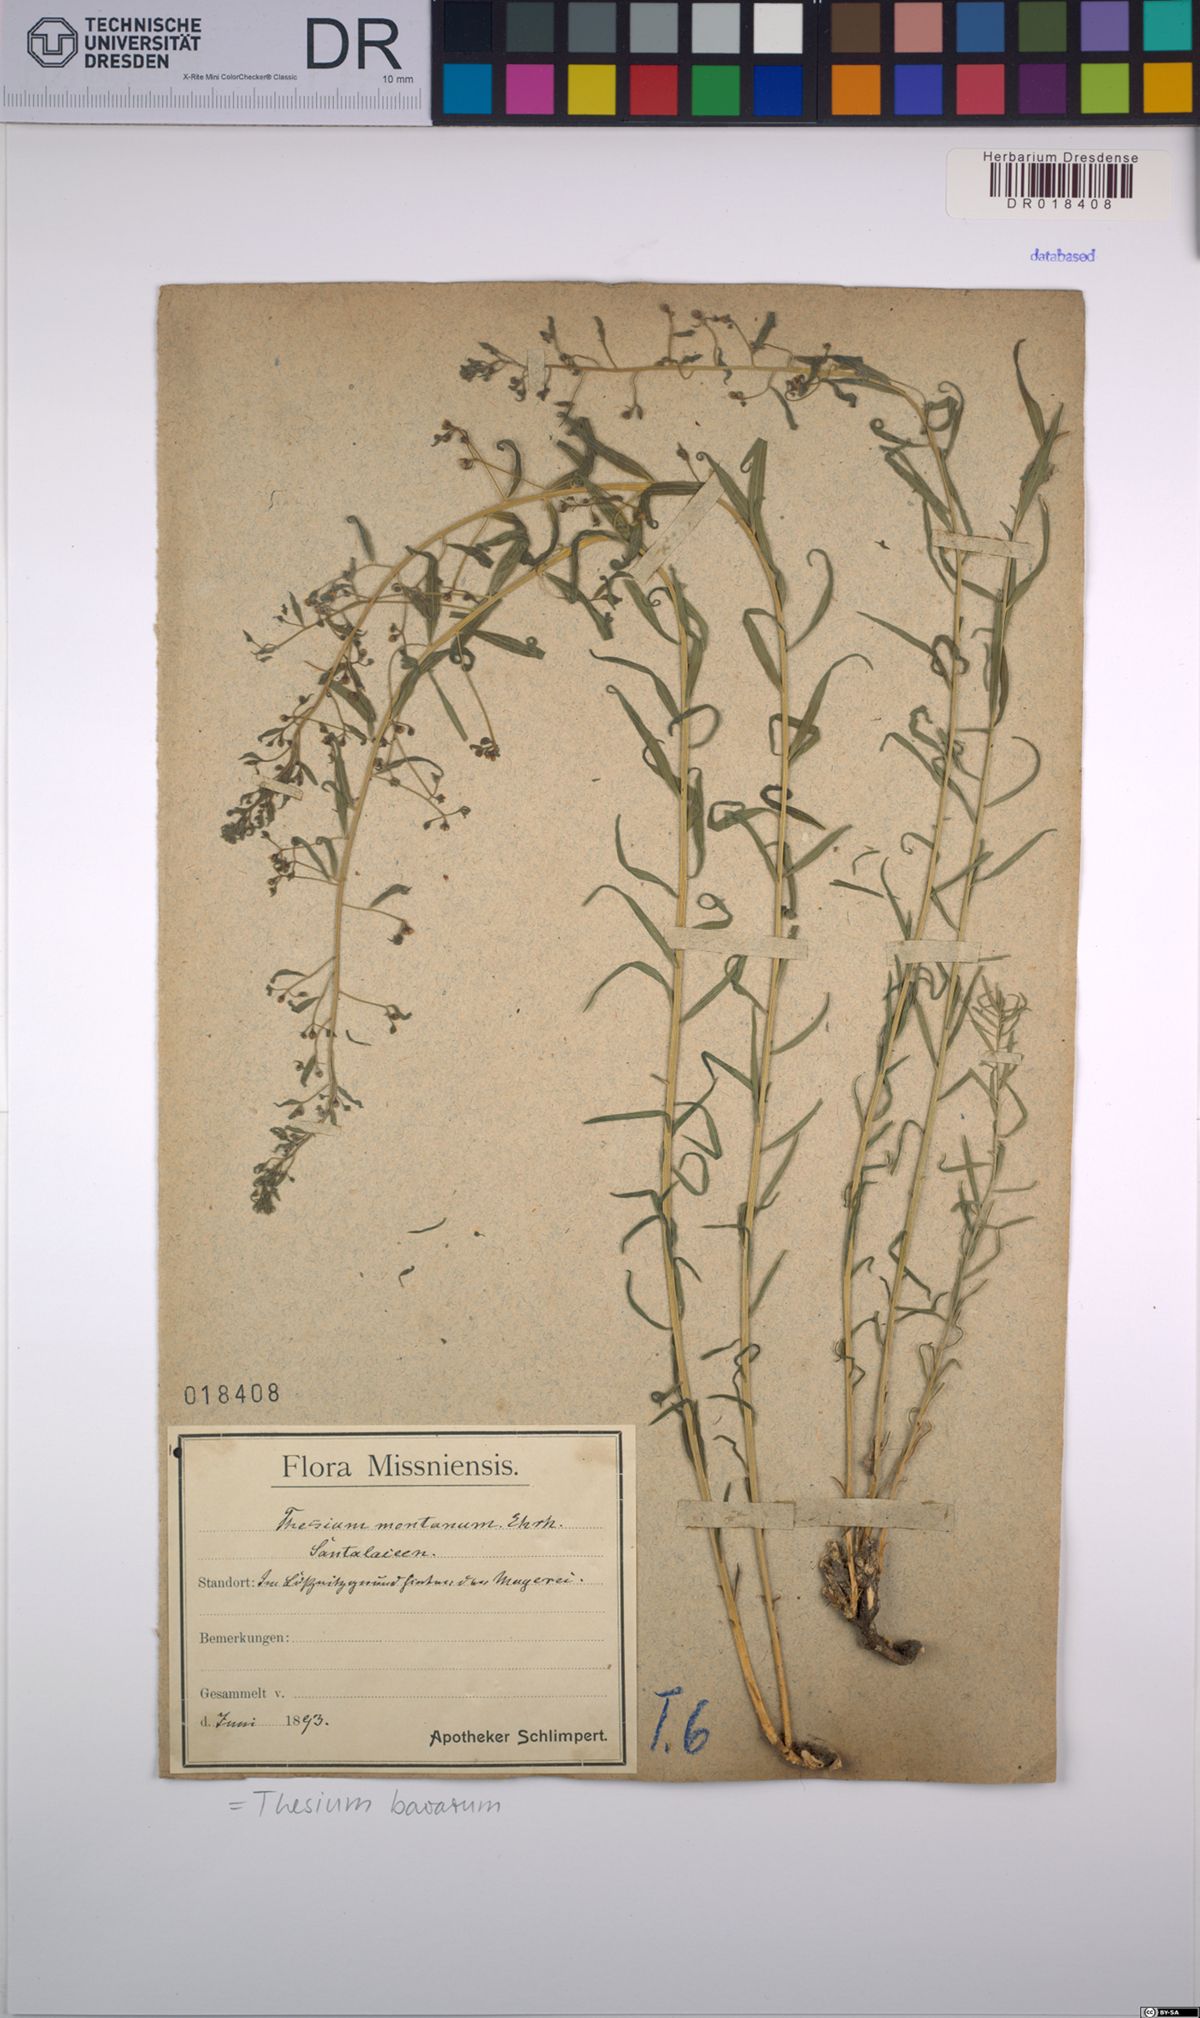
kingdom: Plantae
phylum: Tracheophyta
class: Magnoliopsida
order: Santalales
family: Thesiaceae
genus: Thesium
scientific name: Thesium bavarum
